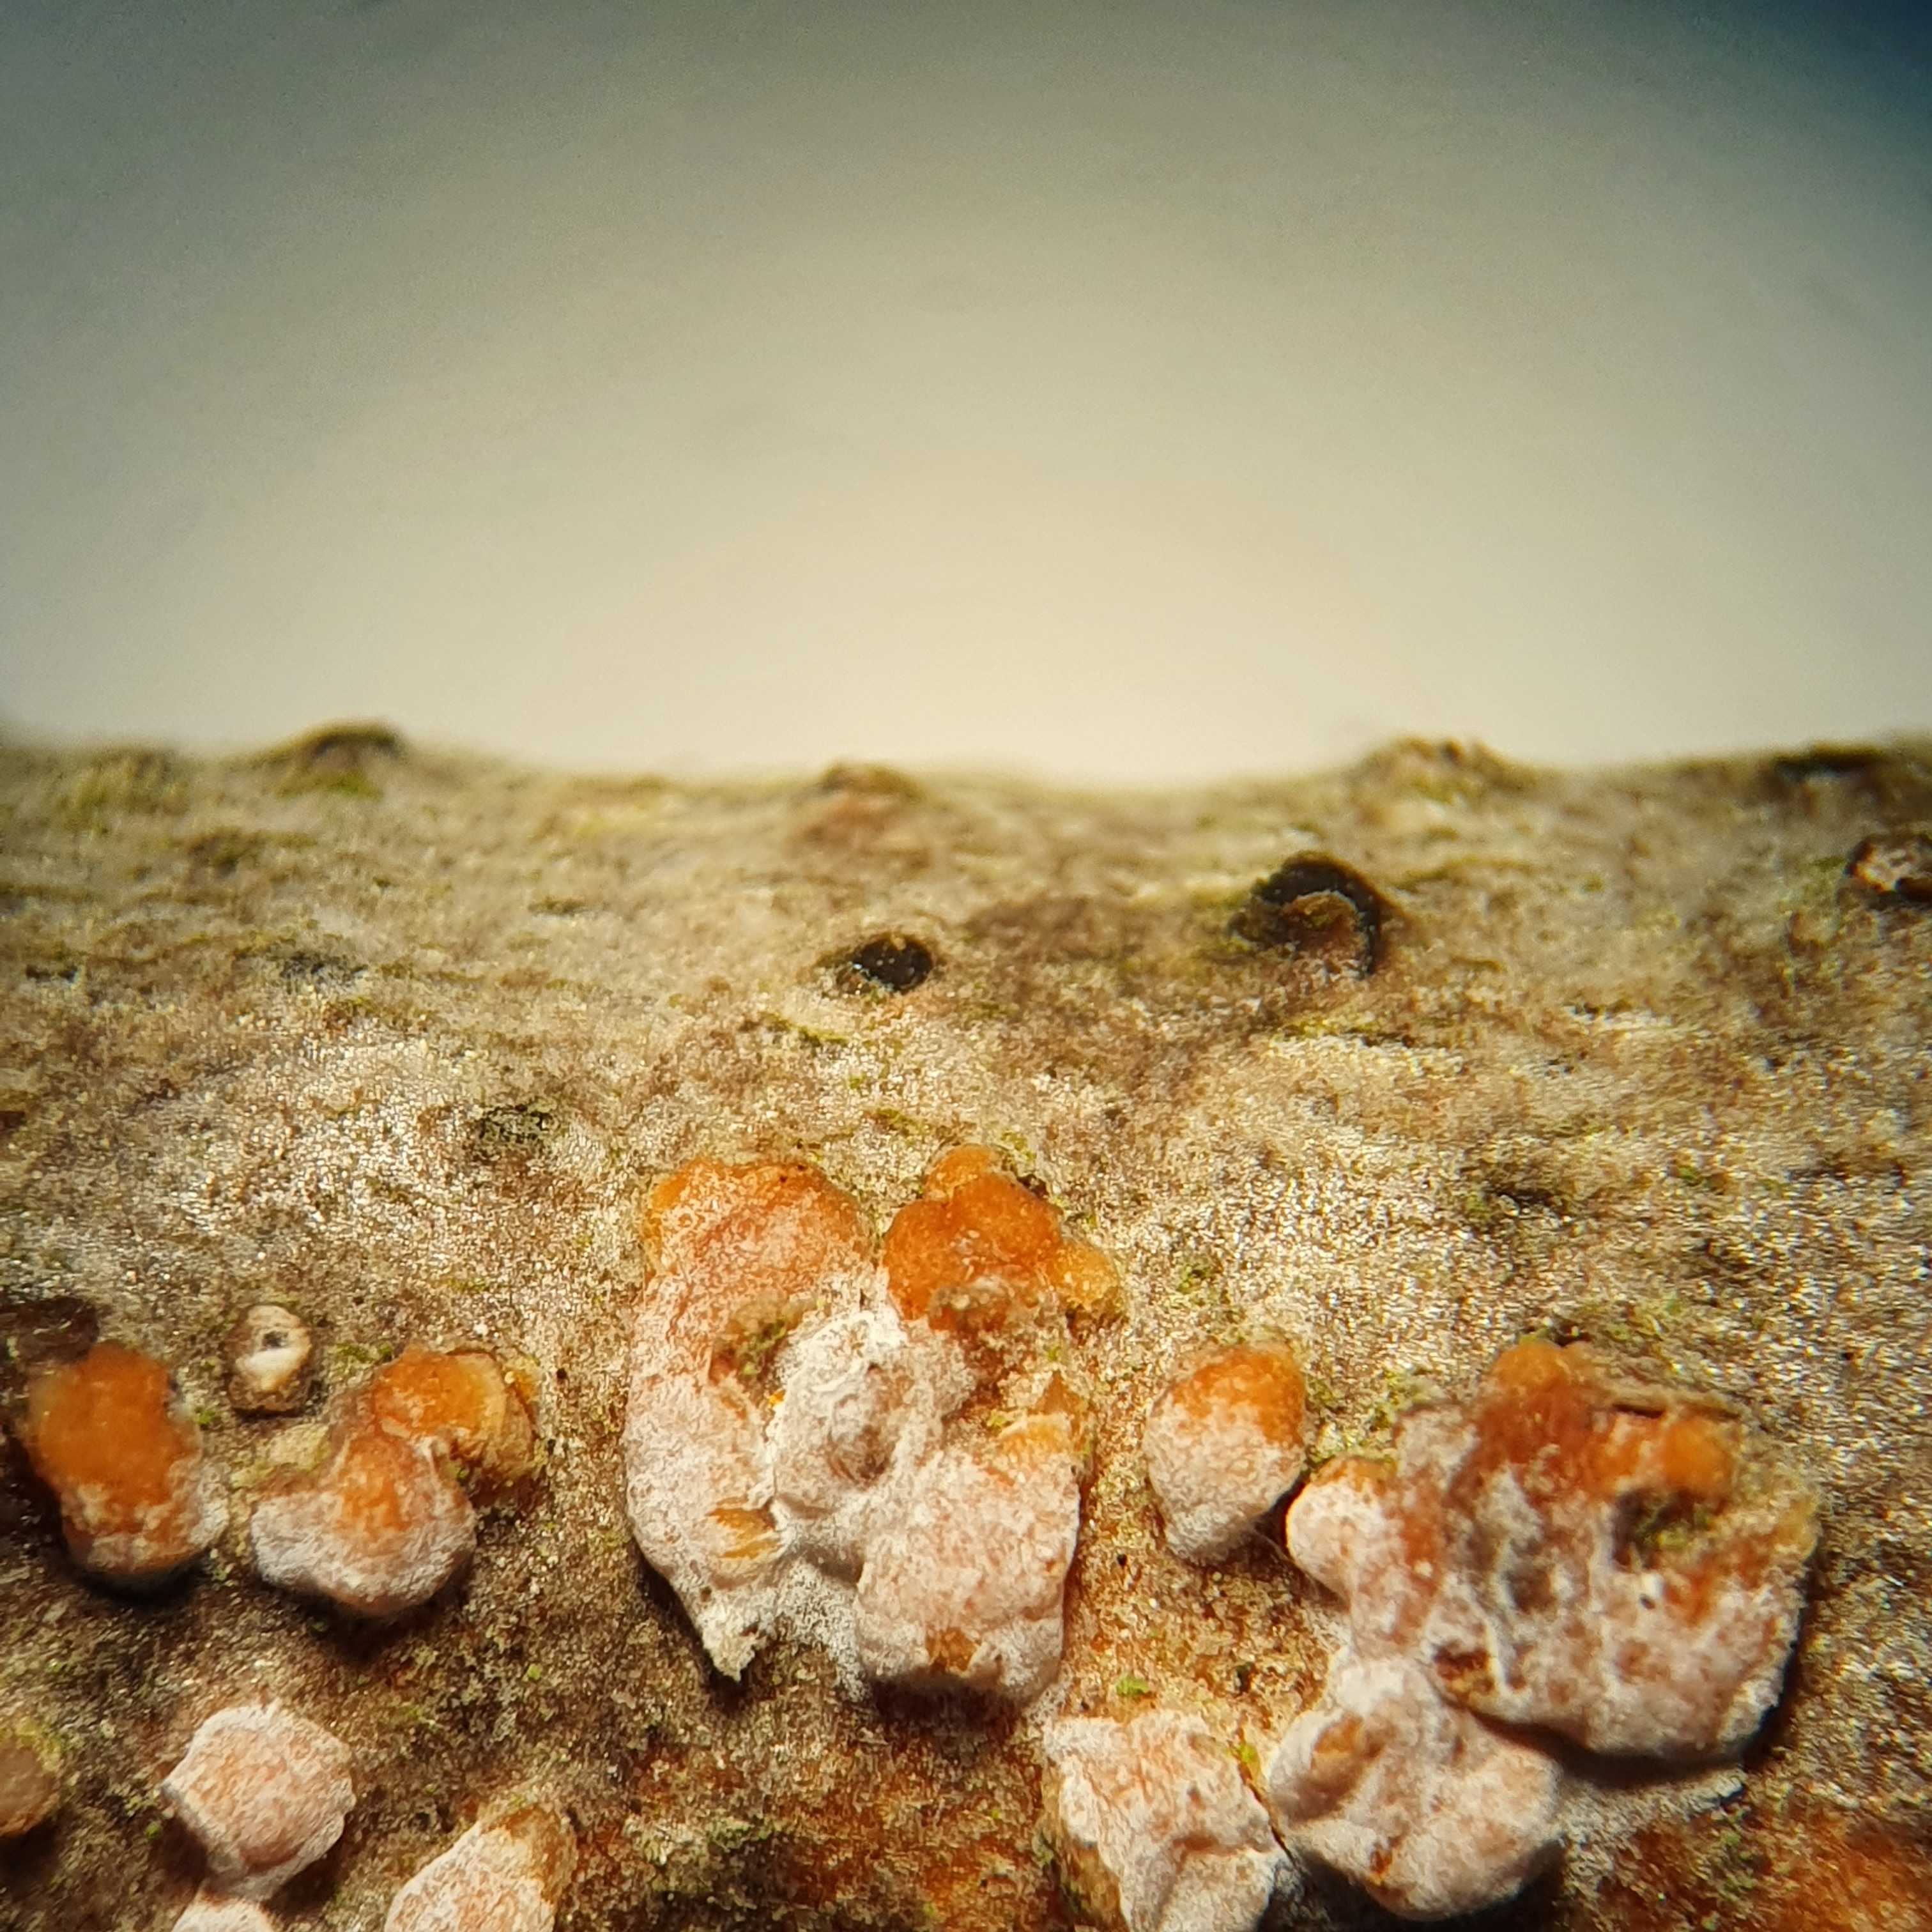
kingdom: Fungi
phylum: Basidiomycota
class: Agaricomycetes
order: Russulales
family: Peniophoraceae
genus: Peniophora
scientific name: Peniophora polygonia
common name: polygon-voksskind
